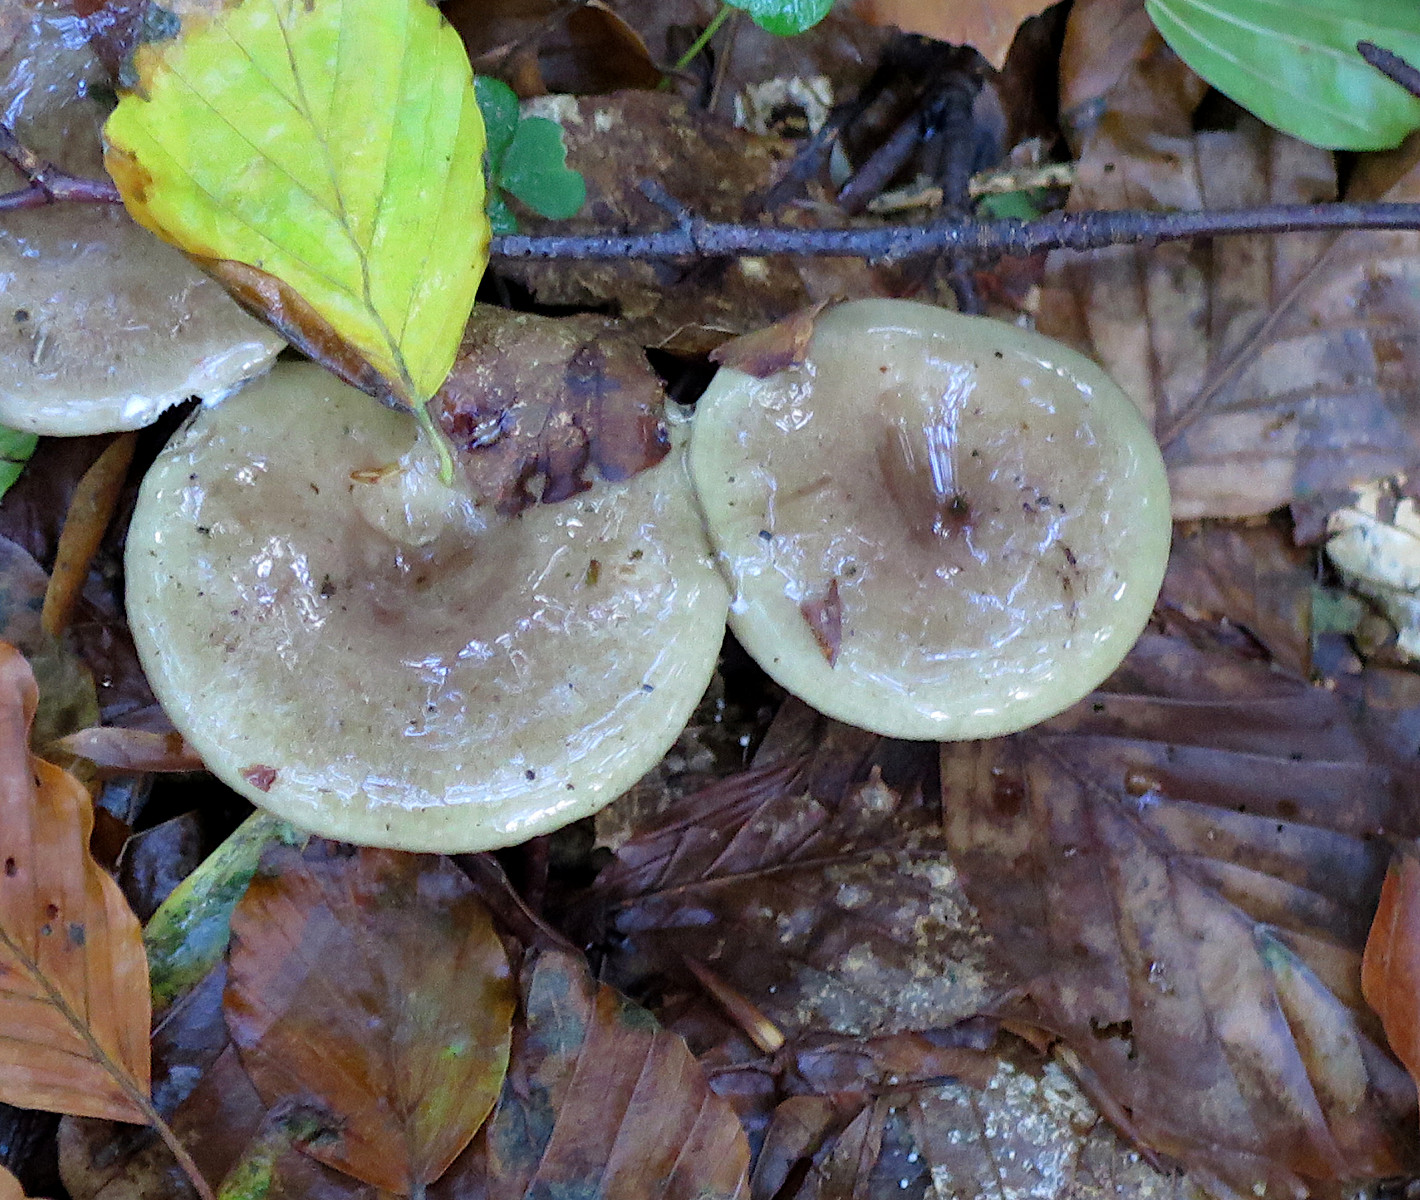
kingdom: Fungi
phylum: Basidiomycota
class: Agaricomycetes
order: Russulales
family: Russulaceae
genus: Lactarius
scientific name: Lactarius blennius
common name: dråbeplettet mælkehat
